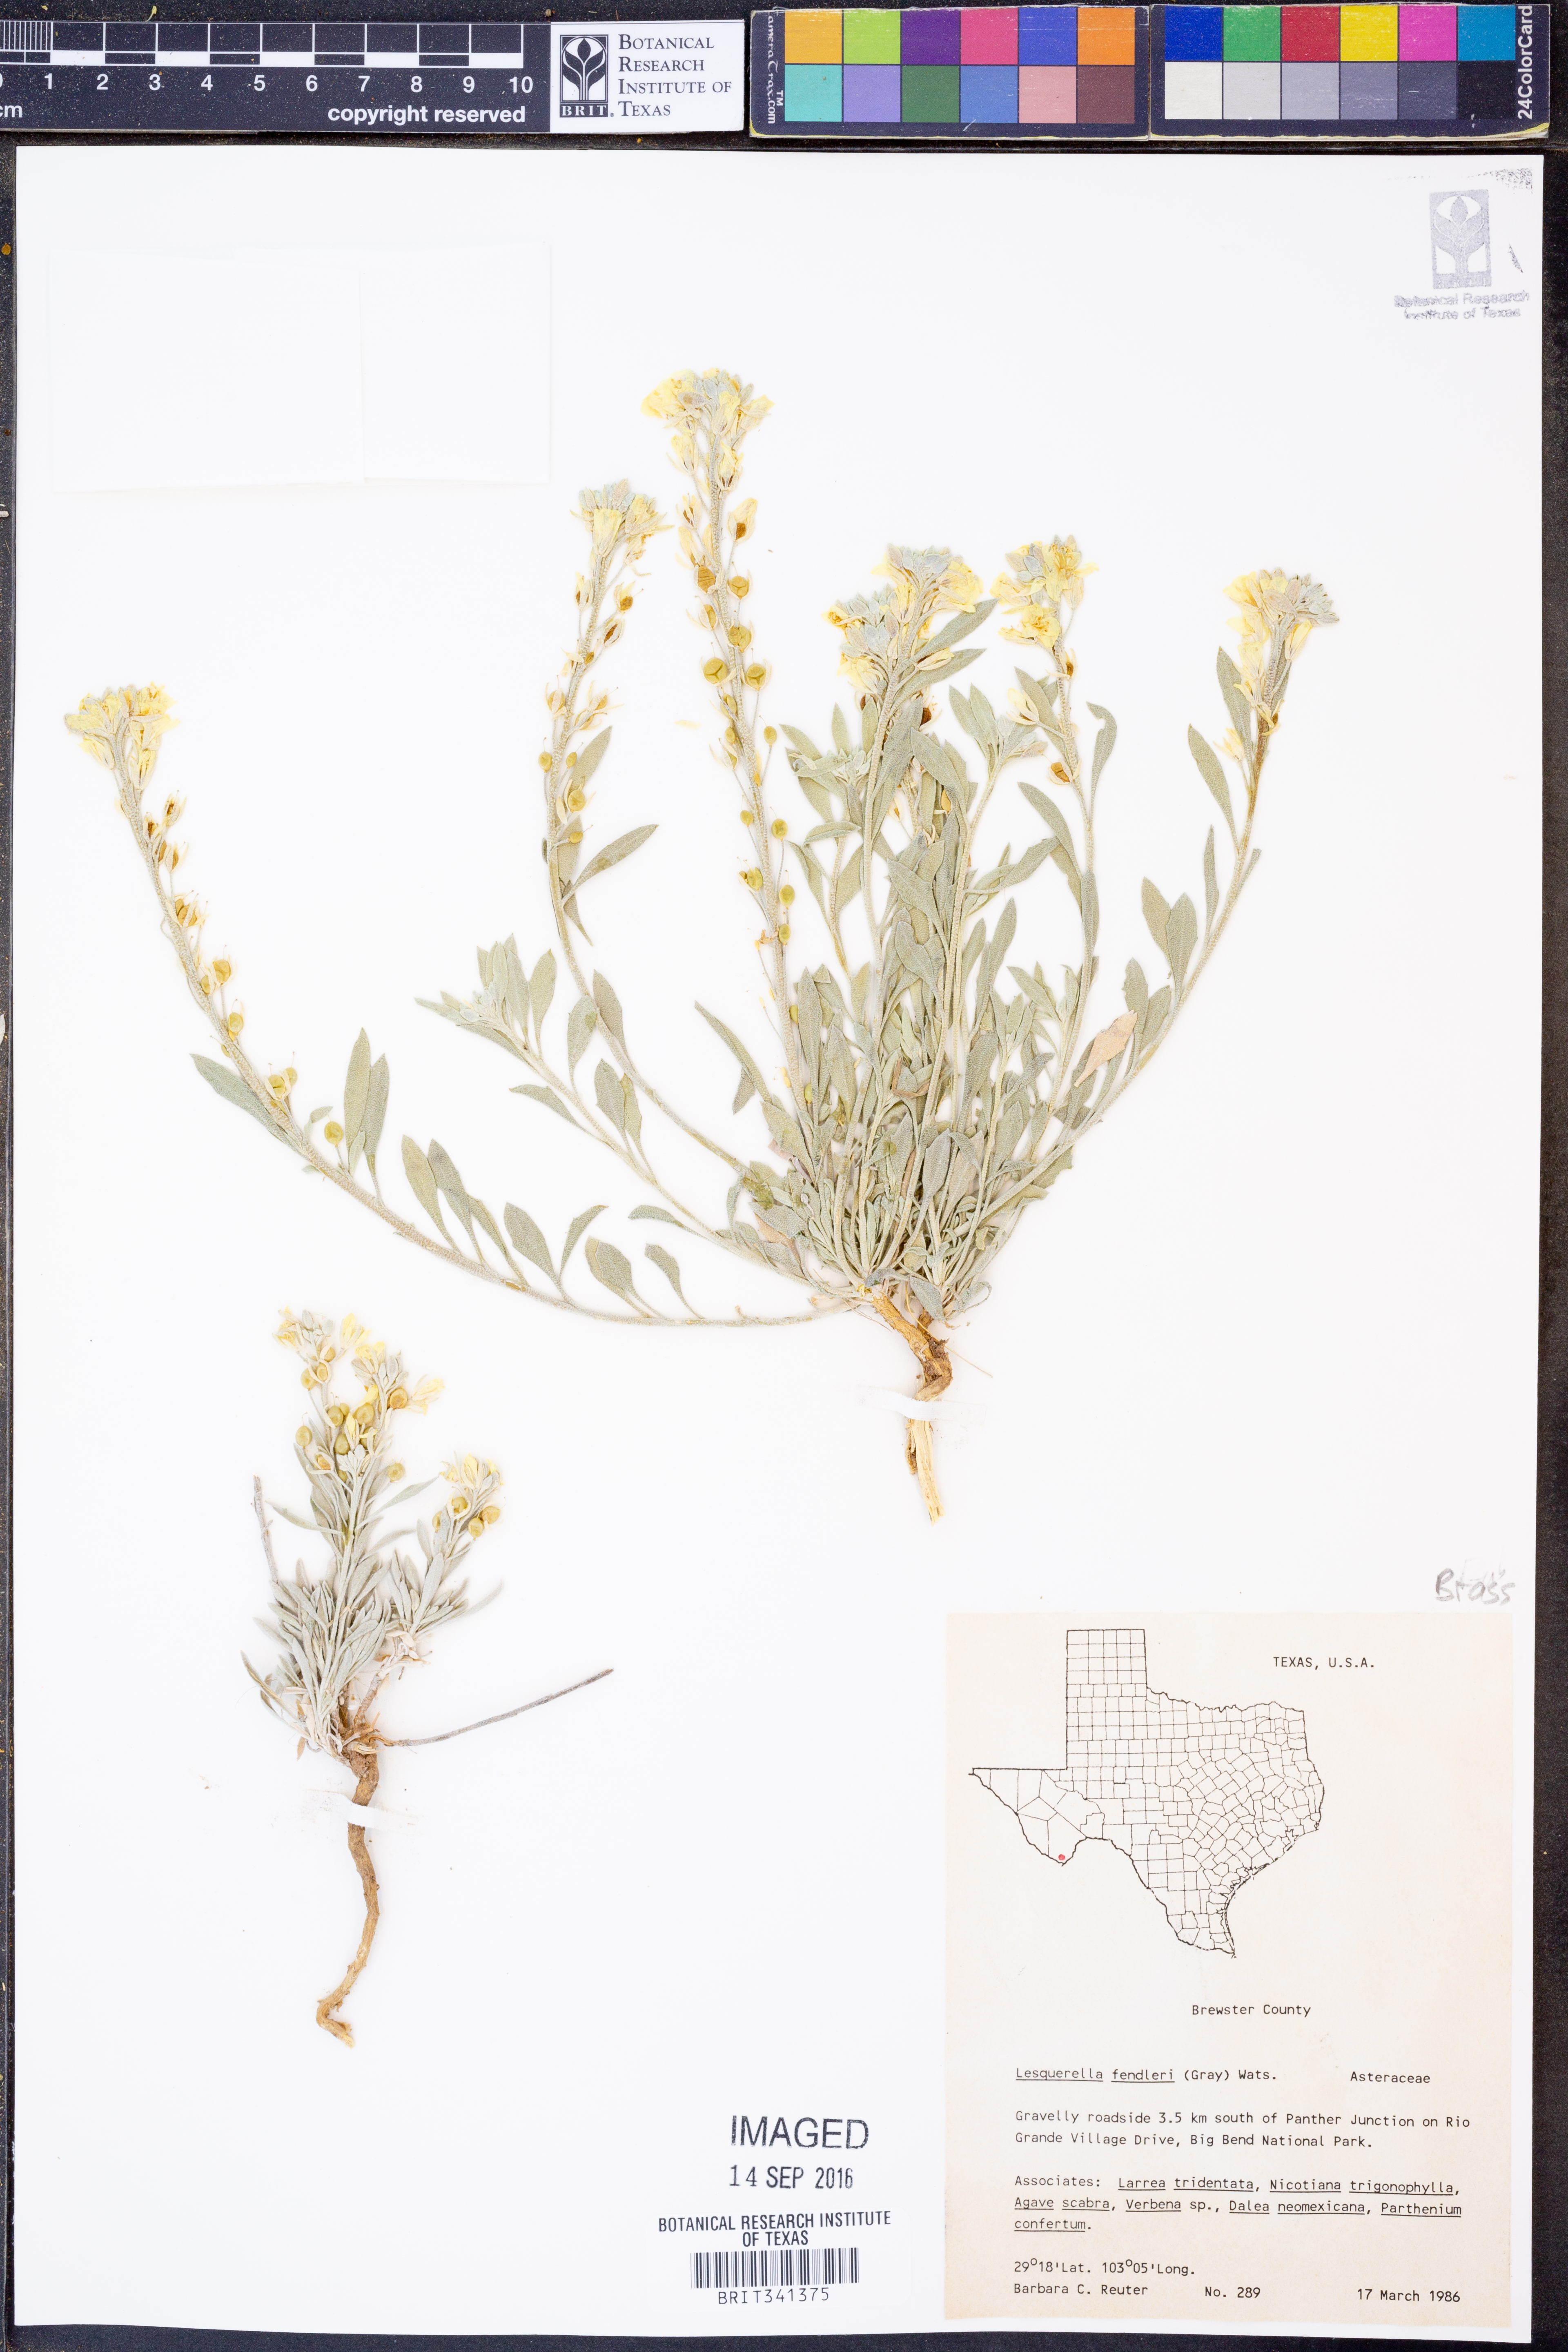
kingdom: Plantae
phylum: Tracheophyta
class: Magnoliopsida
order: Brassicales
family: Brassicaceae
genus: Physaria
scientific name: Physaria fendleri
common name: Fendler's bladderpod
